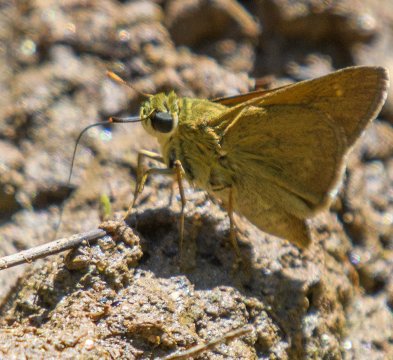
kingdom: Animalia
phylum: Arthropoda
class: Insecta
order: Lepidoptera
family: Hesperiidae
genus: Polites
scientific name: Polites
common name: Crossline Skipper
